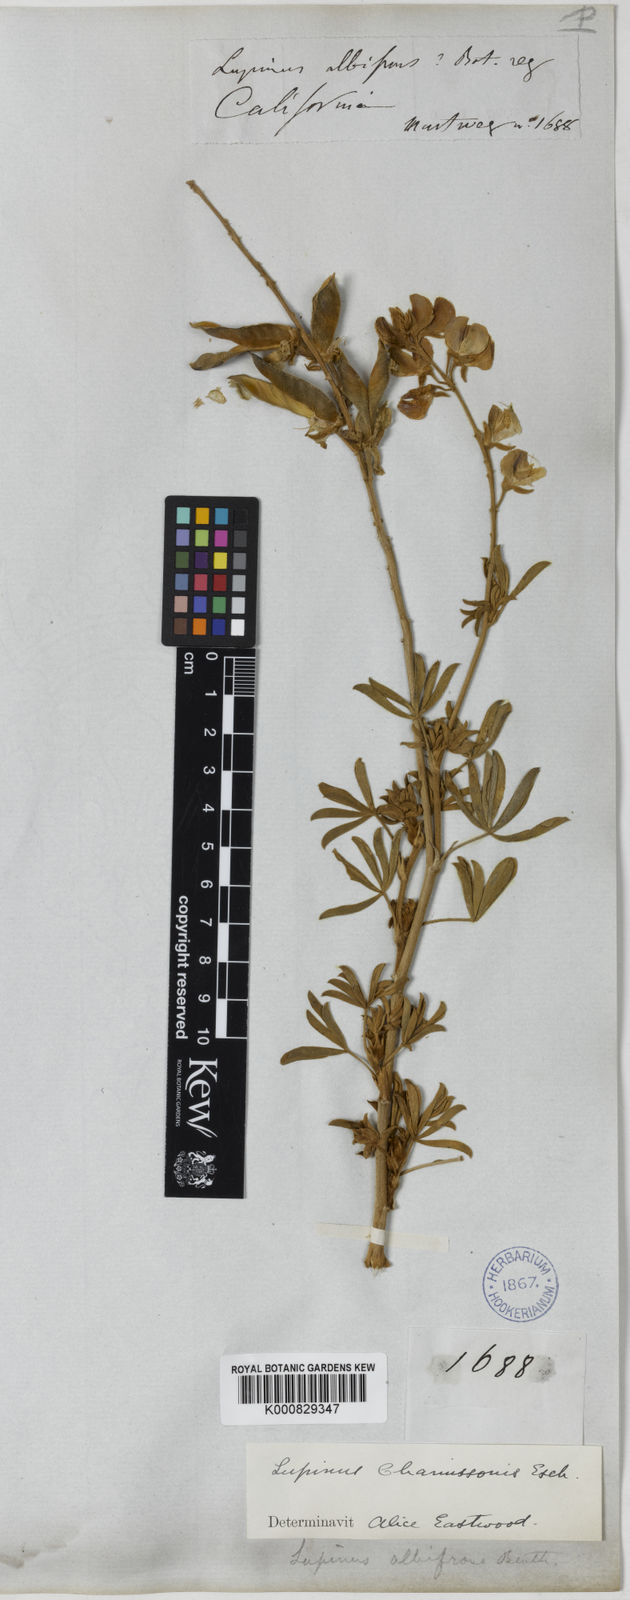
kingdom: Plantae
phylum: Tracheophyta
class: Magnoliopsida
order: Fabales
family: Fabaceae
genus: Lupinus
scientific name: Lupinus chamissonis
